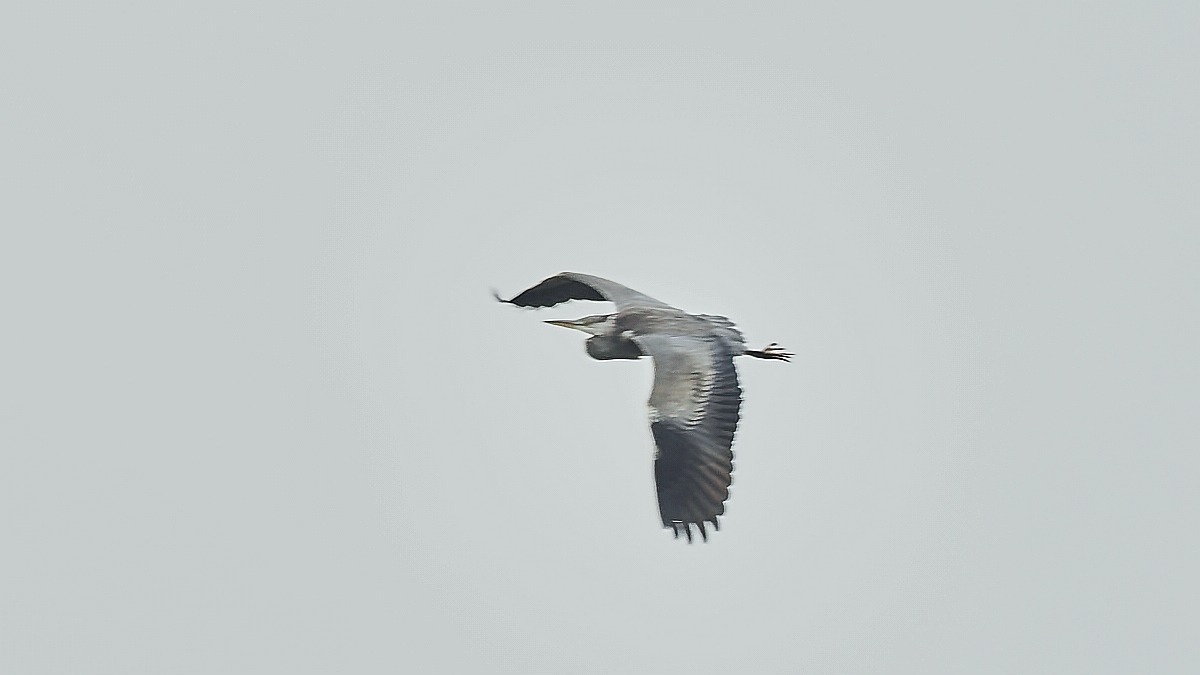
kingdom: Animalia
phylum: Chordata
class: Aves
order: Pelecaniformes
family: Ardeidae
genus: Ardea
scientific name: Ardea cinerea
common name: Fiskehejre
